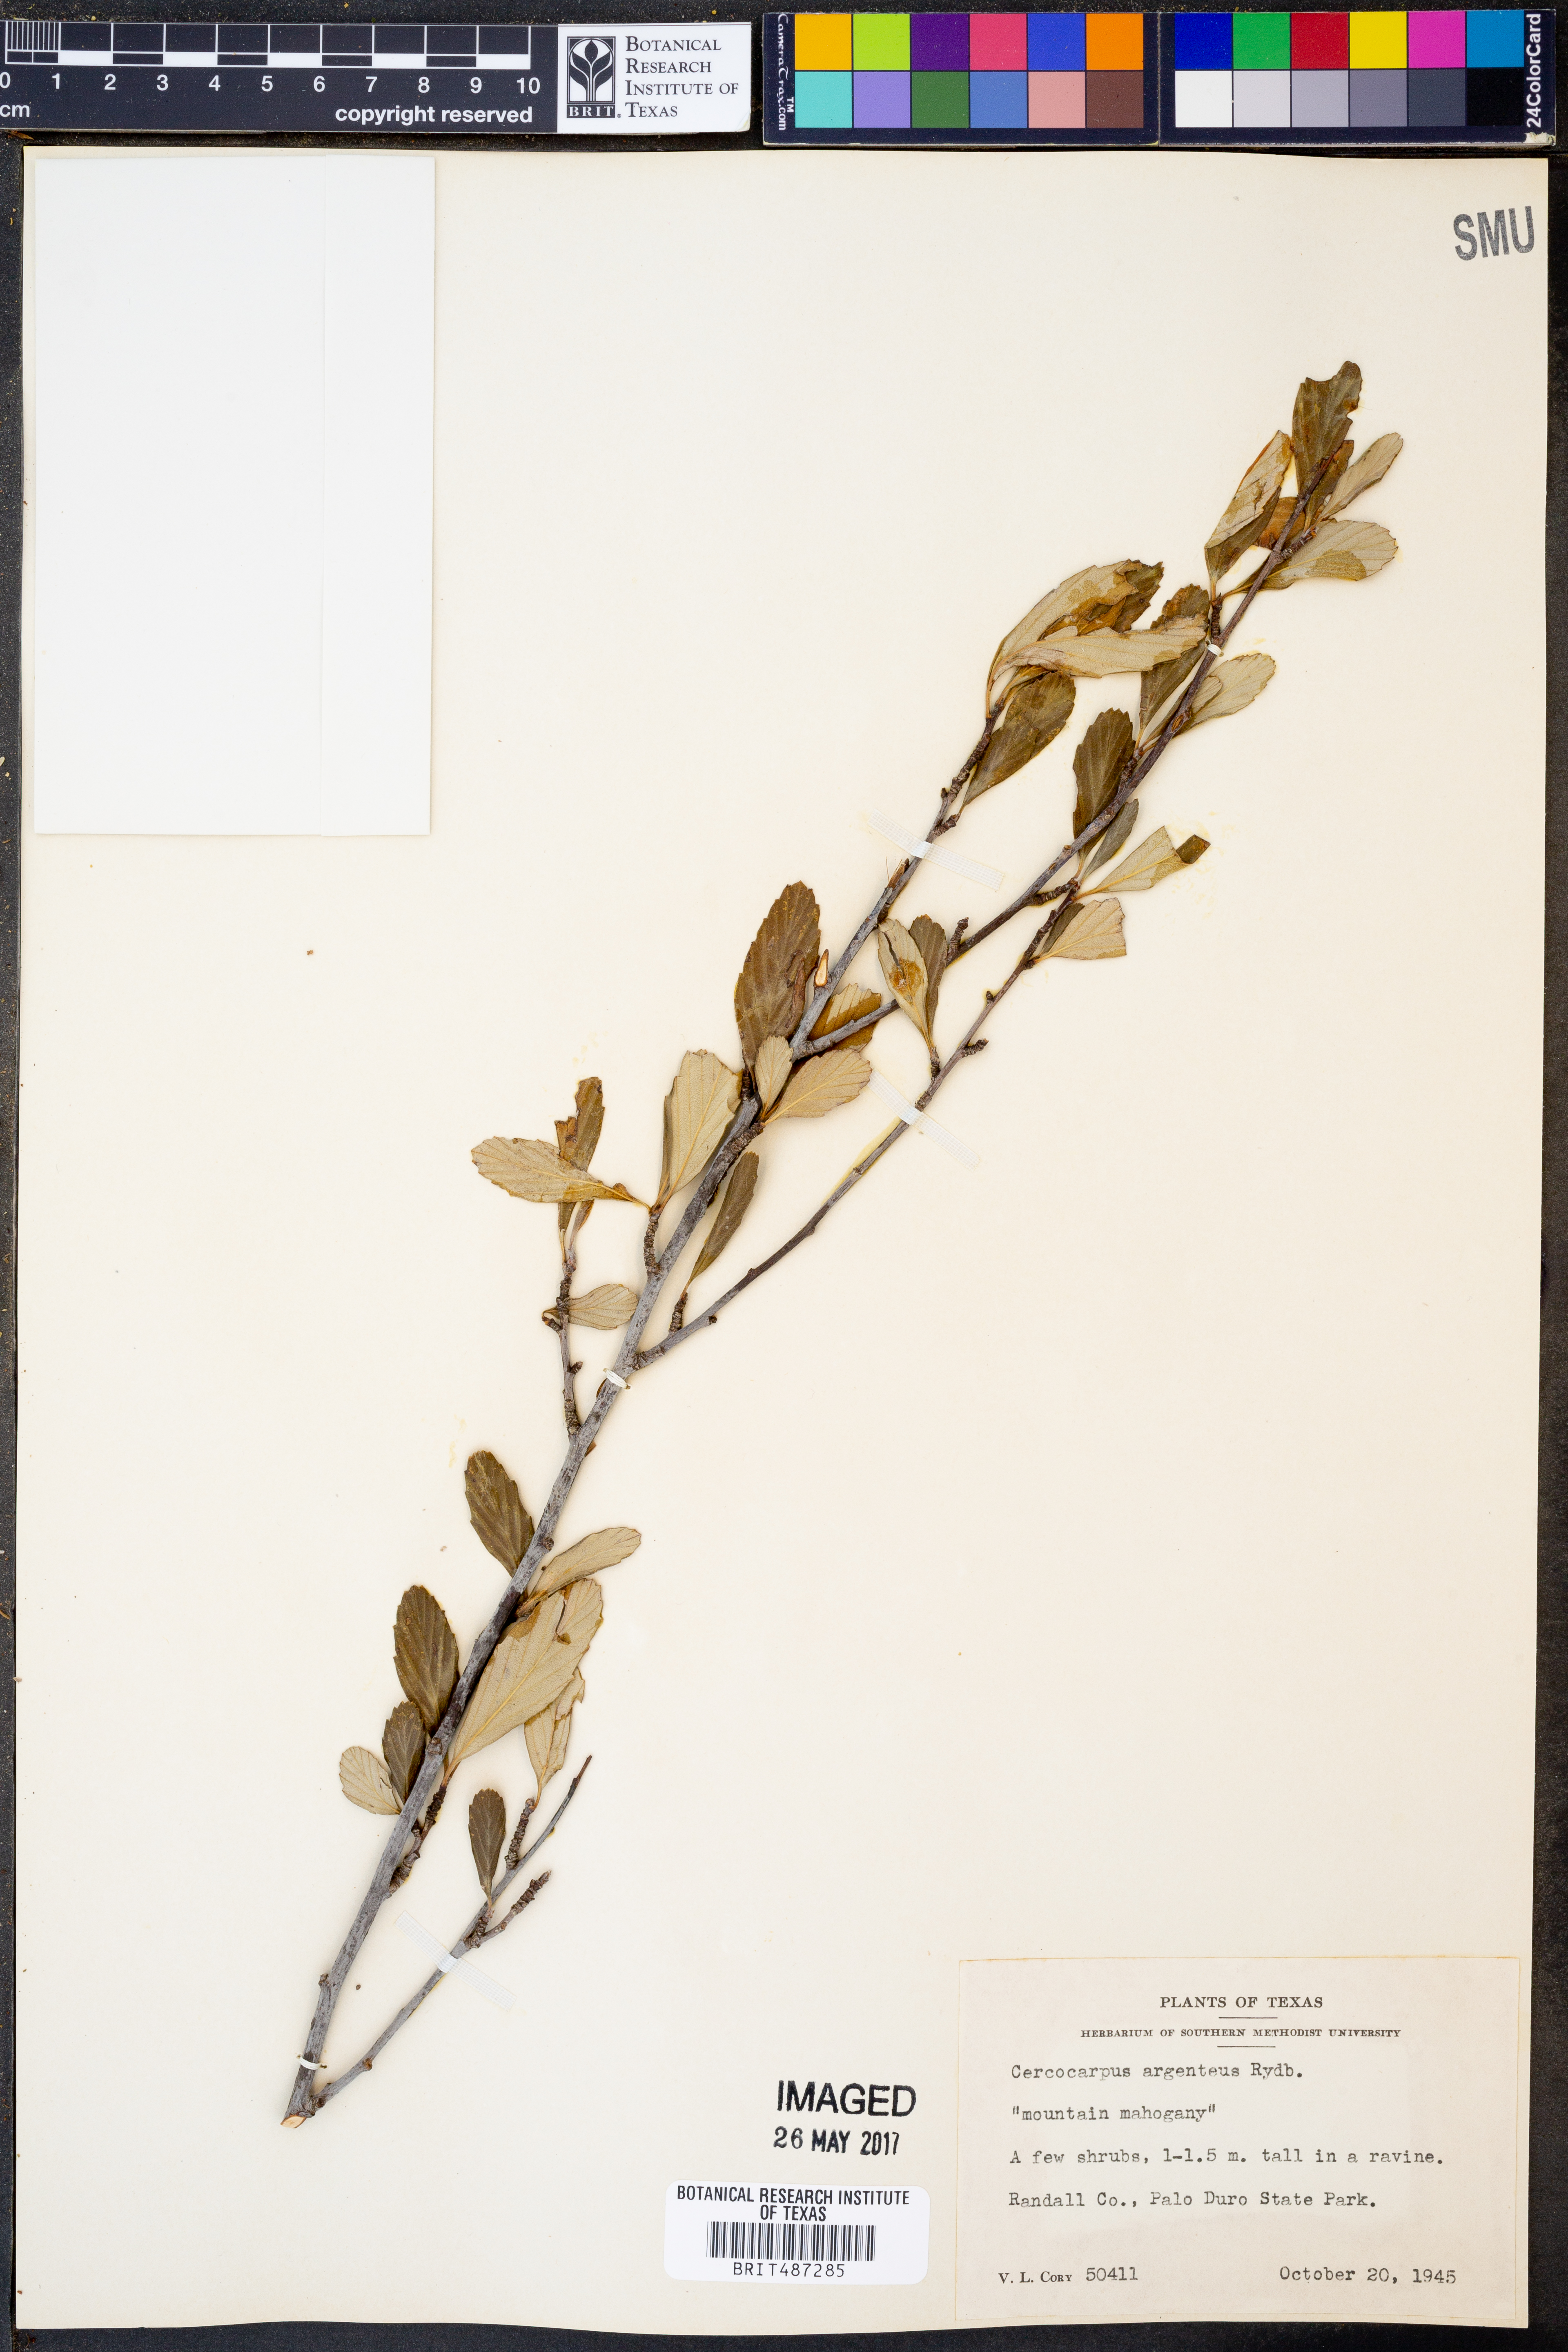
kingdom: Plantae
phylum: Tracheophyta
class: Magnoliopsida
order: Rosales
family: Rosaceae
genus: Cercocarpus
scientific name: Cercocarpus intricatus
